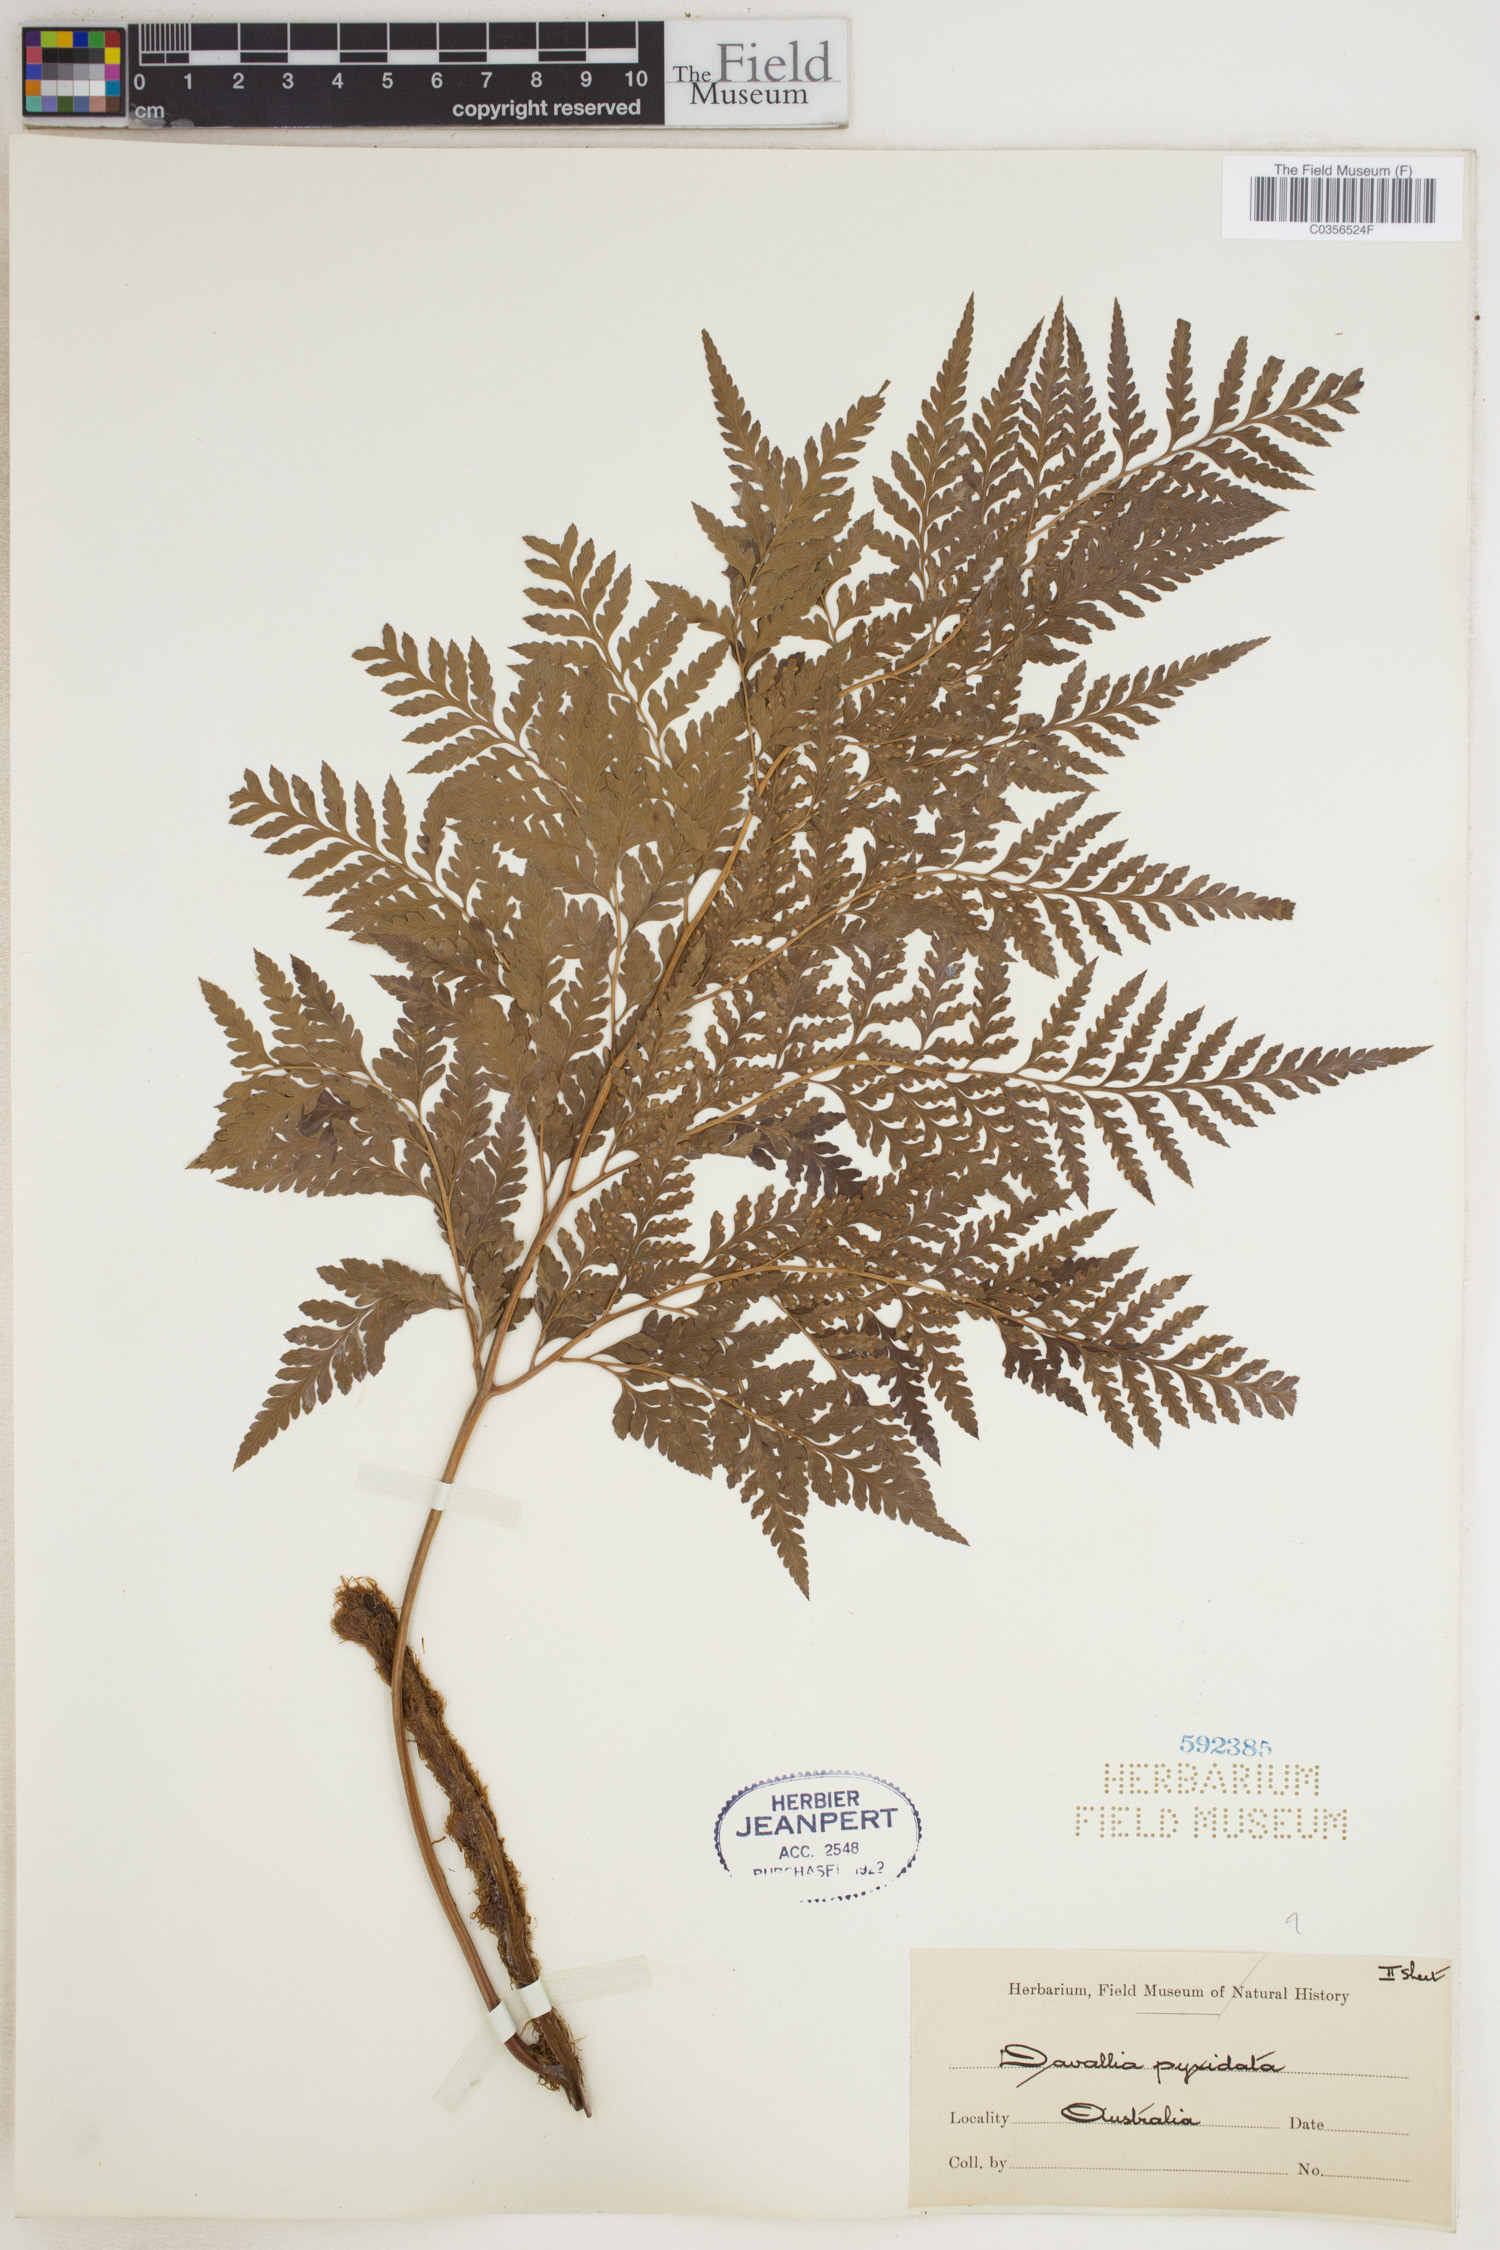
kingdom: Plantae
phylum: Tracheophyta
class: Polypodiopsida
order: Polypodiales
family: Davalliaceae
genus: Davallia
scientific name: Davallia pyxidata
